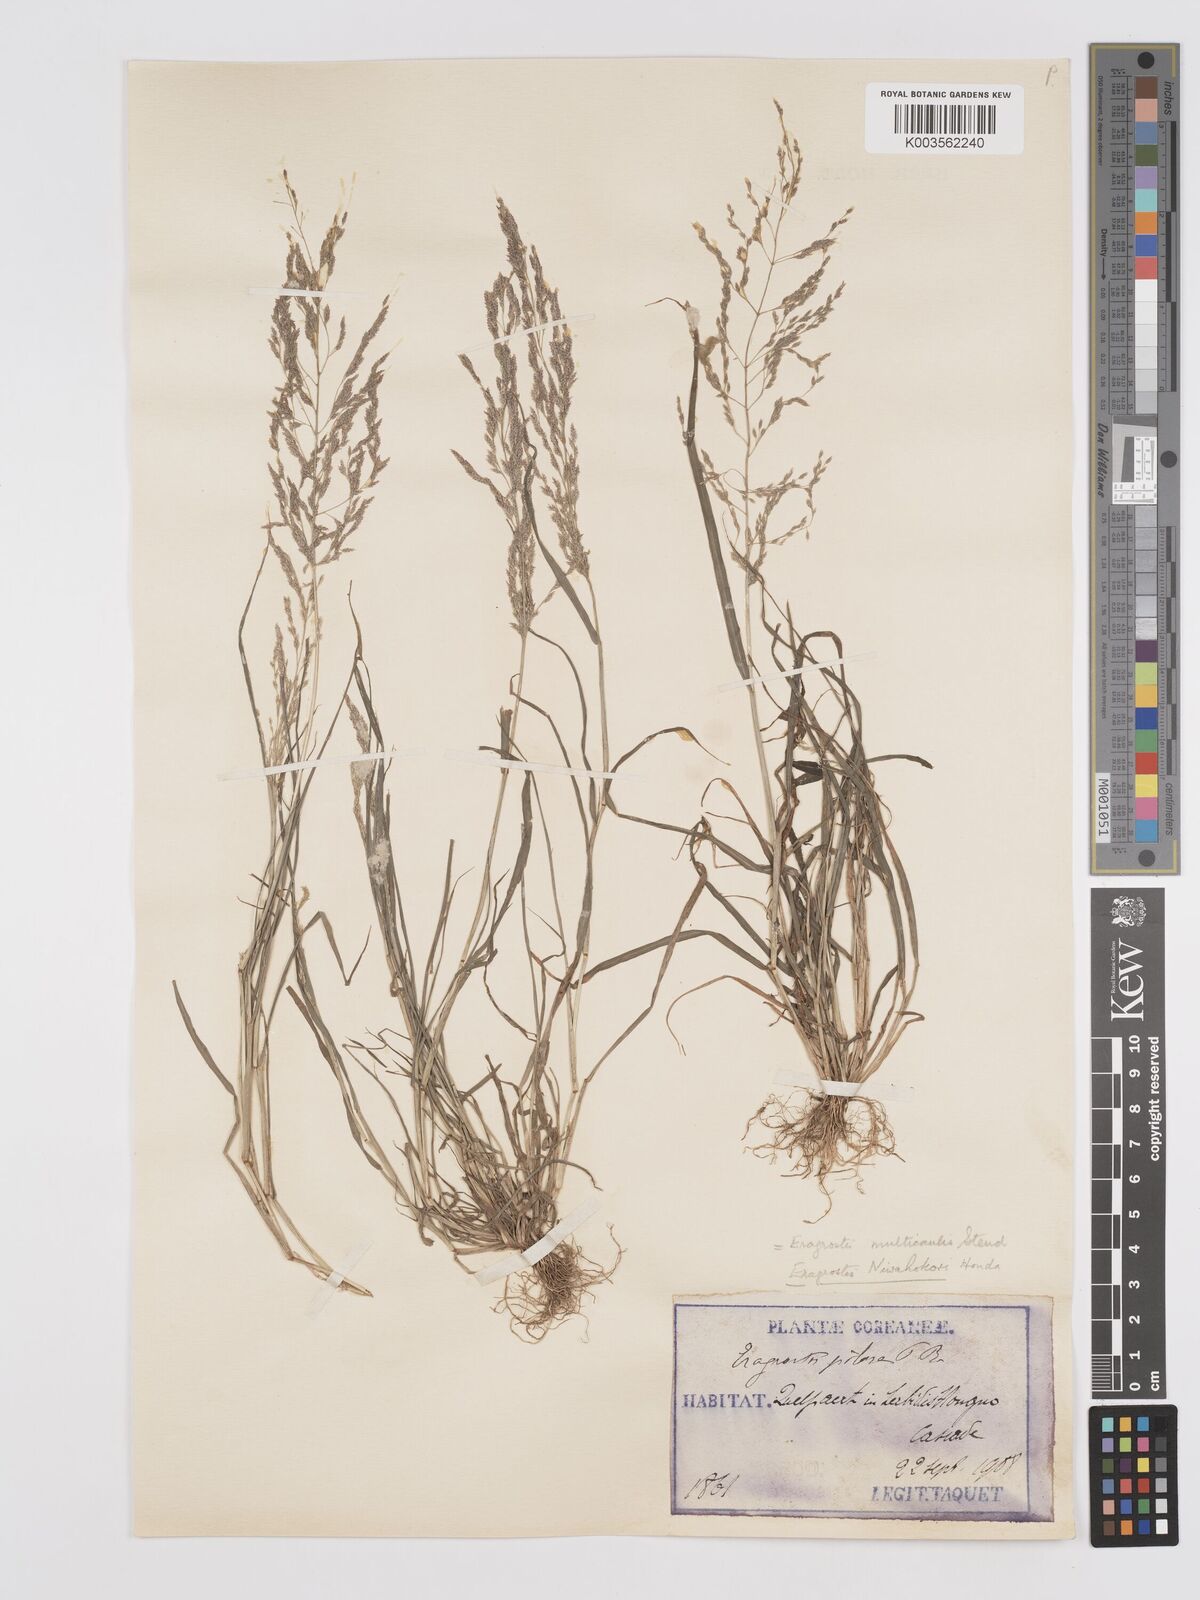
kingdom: Plantae
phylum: Tracheophyta
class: Liliopsida
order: Poales
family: Poaceae
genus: Eragrostis
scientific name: Eragrostis pilosa
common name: Indian lovegrass
